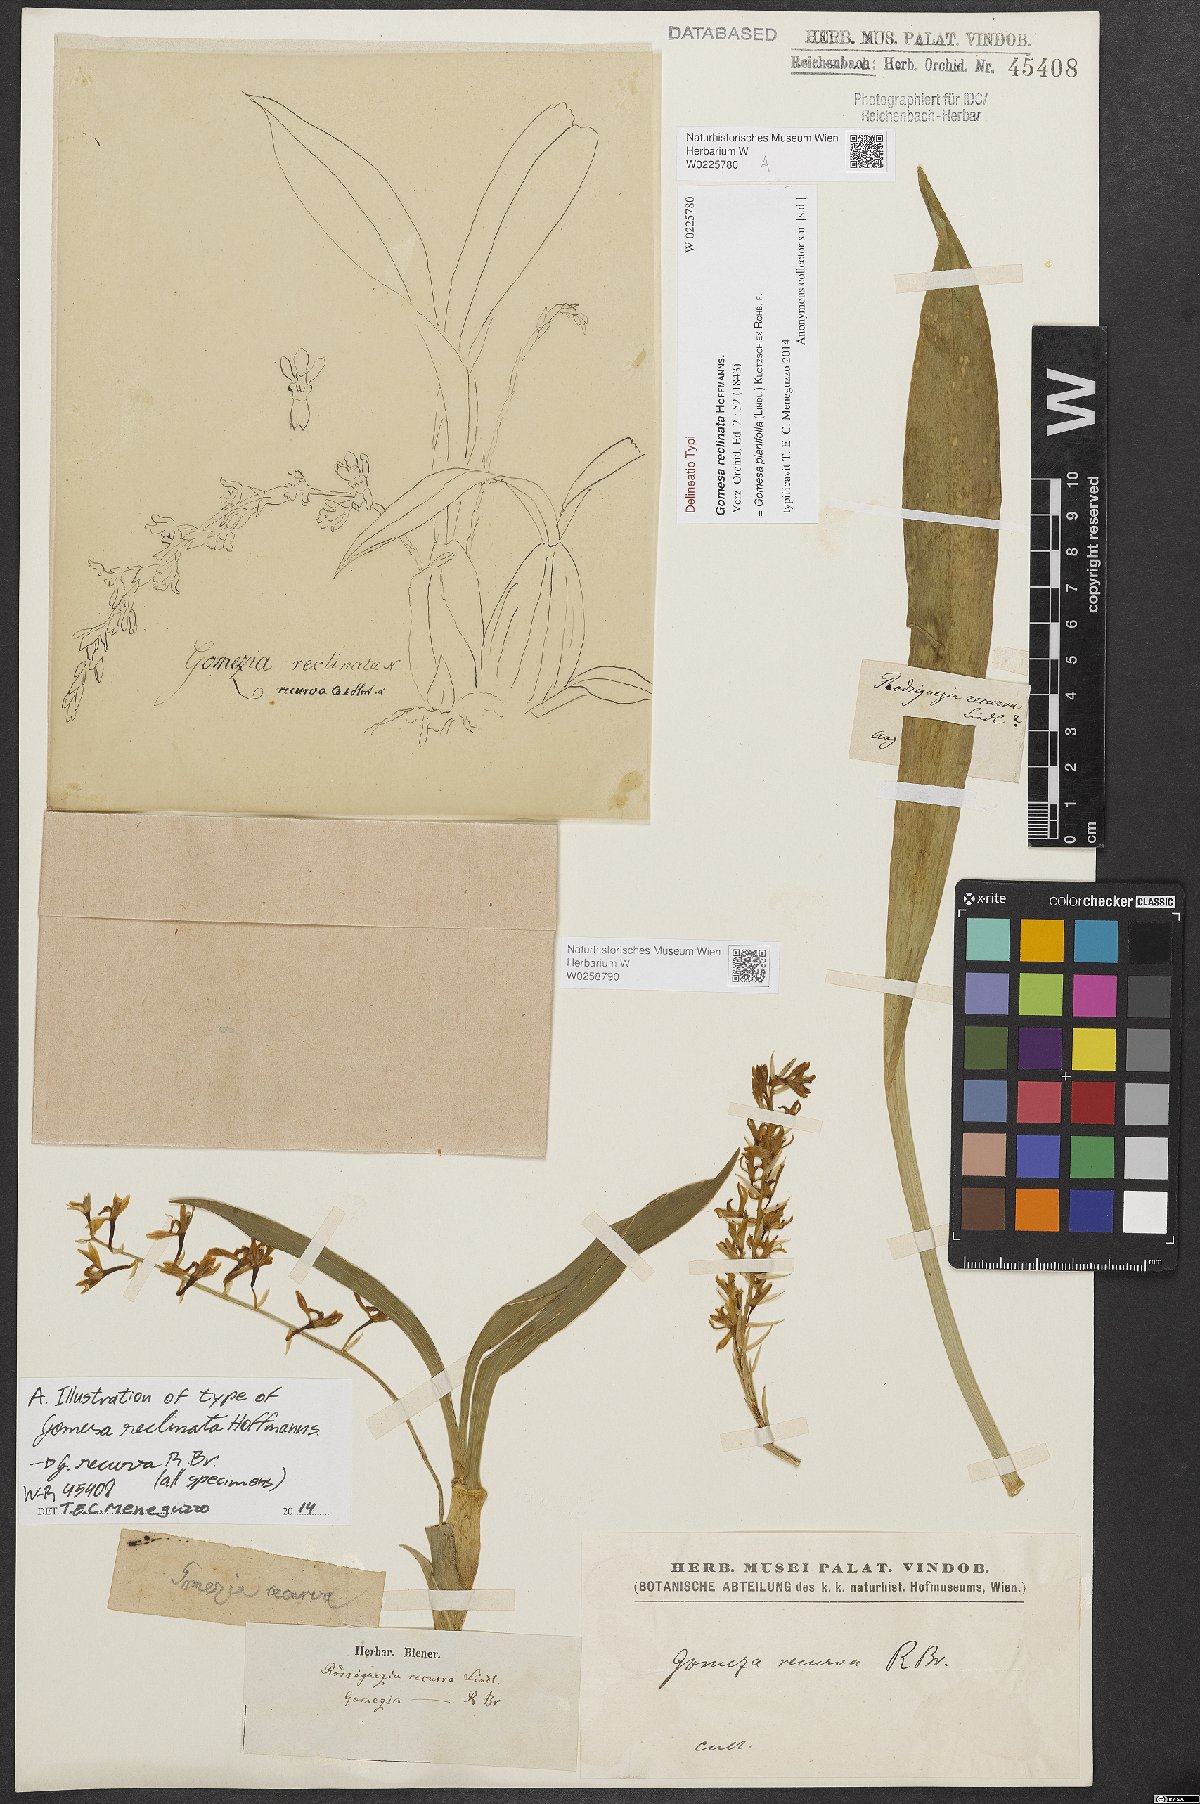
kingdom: Plantae
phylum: Tracheophyta
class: Liliopsida
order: Asparagales
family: Orchidaceae
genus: Gomesa
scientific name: Gomesa planifolia
